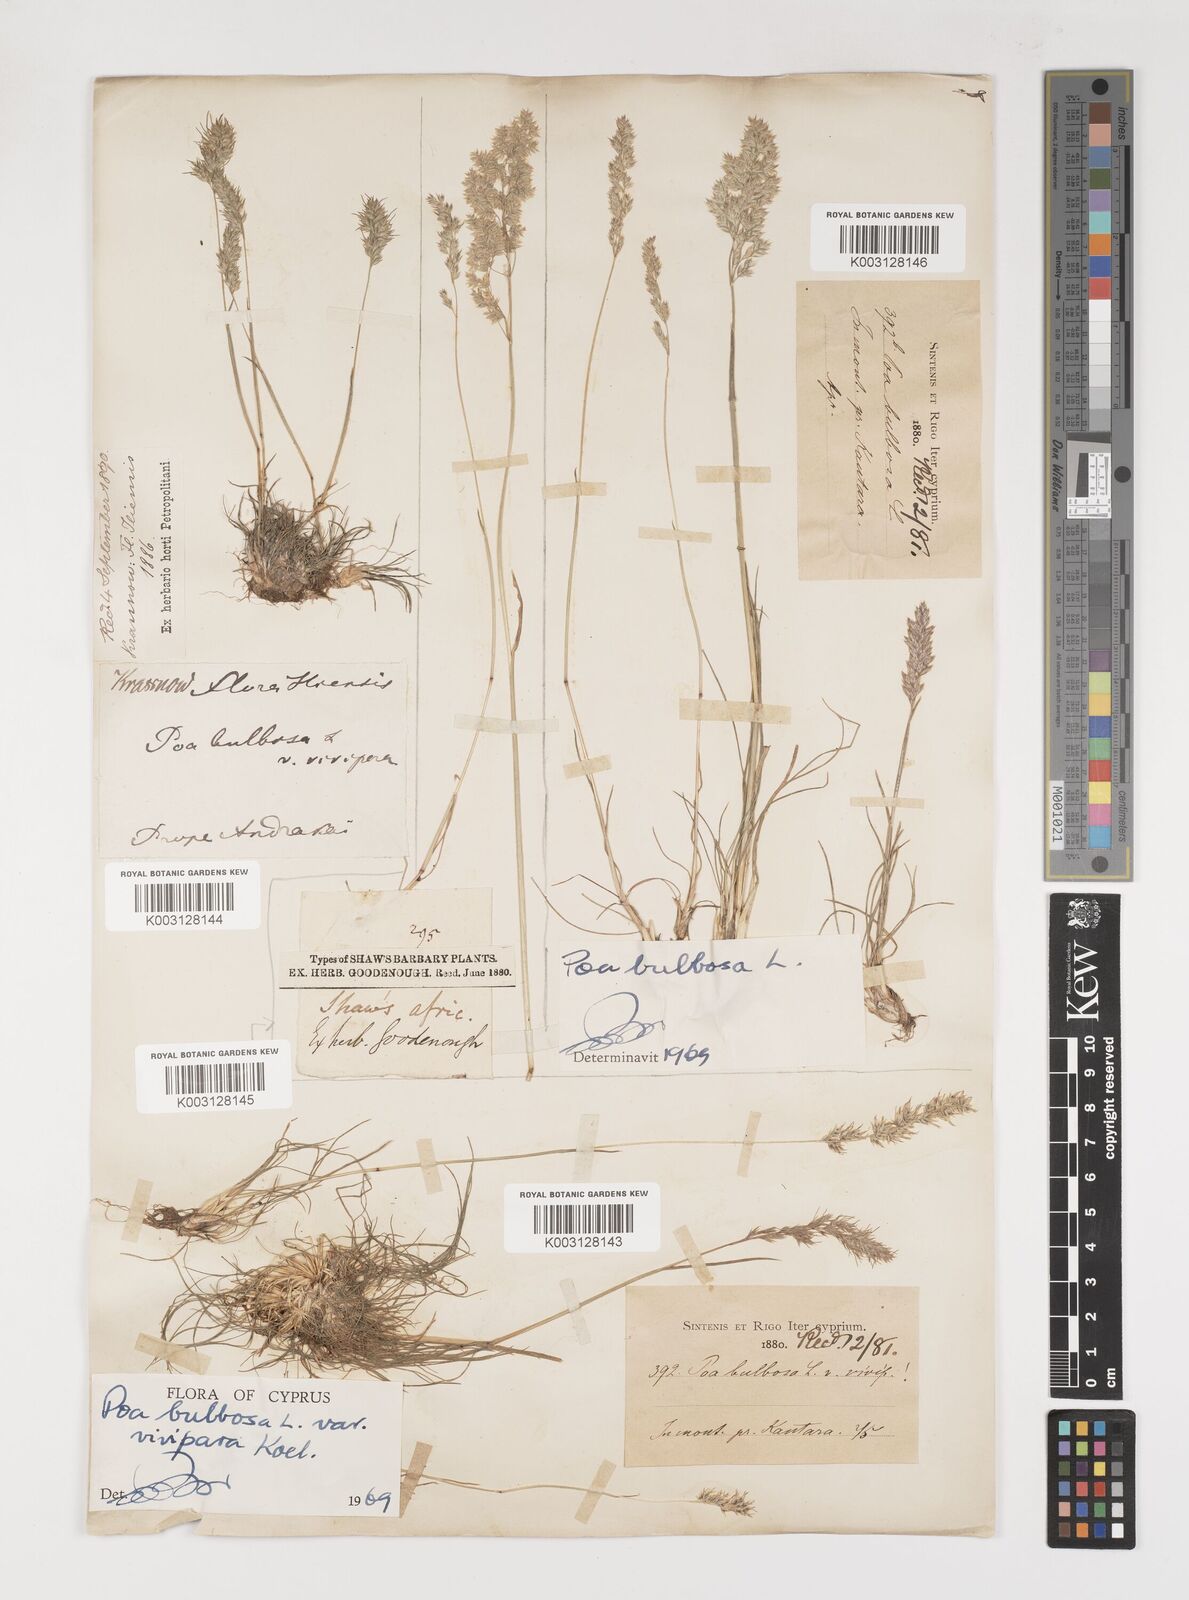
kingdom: Plantae
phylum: Tracheophyta
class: Liliopsida
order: Poales
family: Poaceae
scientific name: Poaceae
